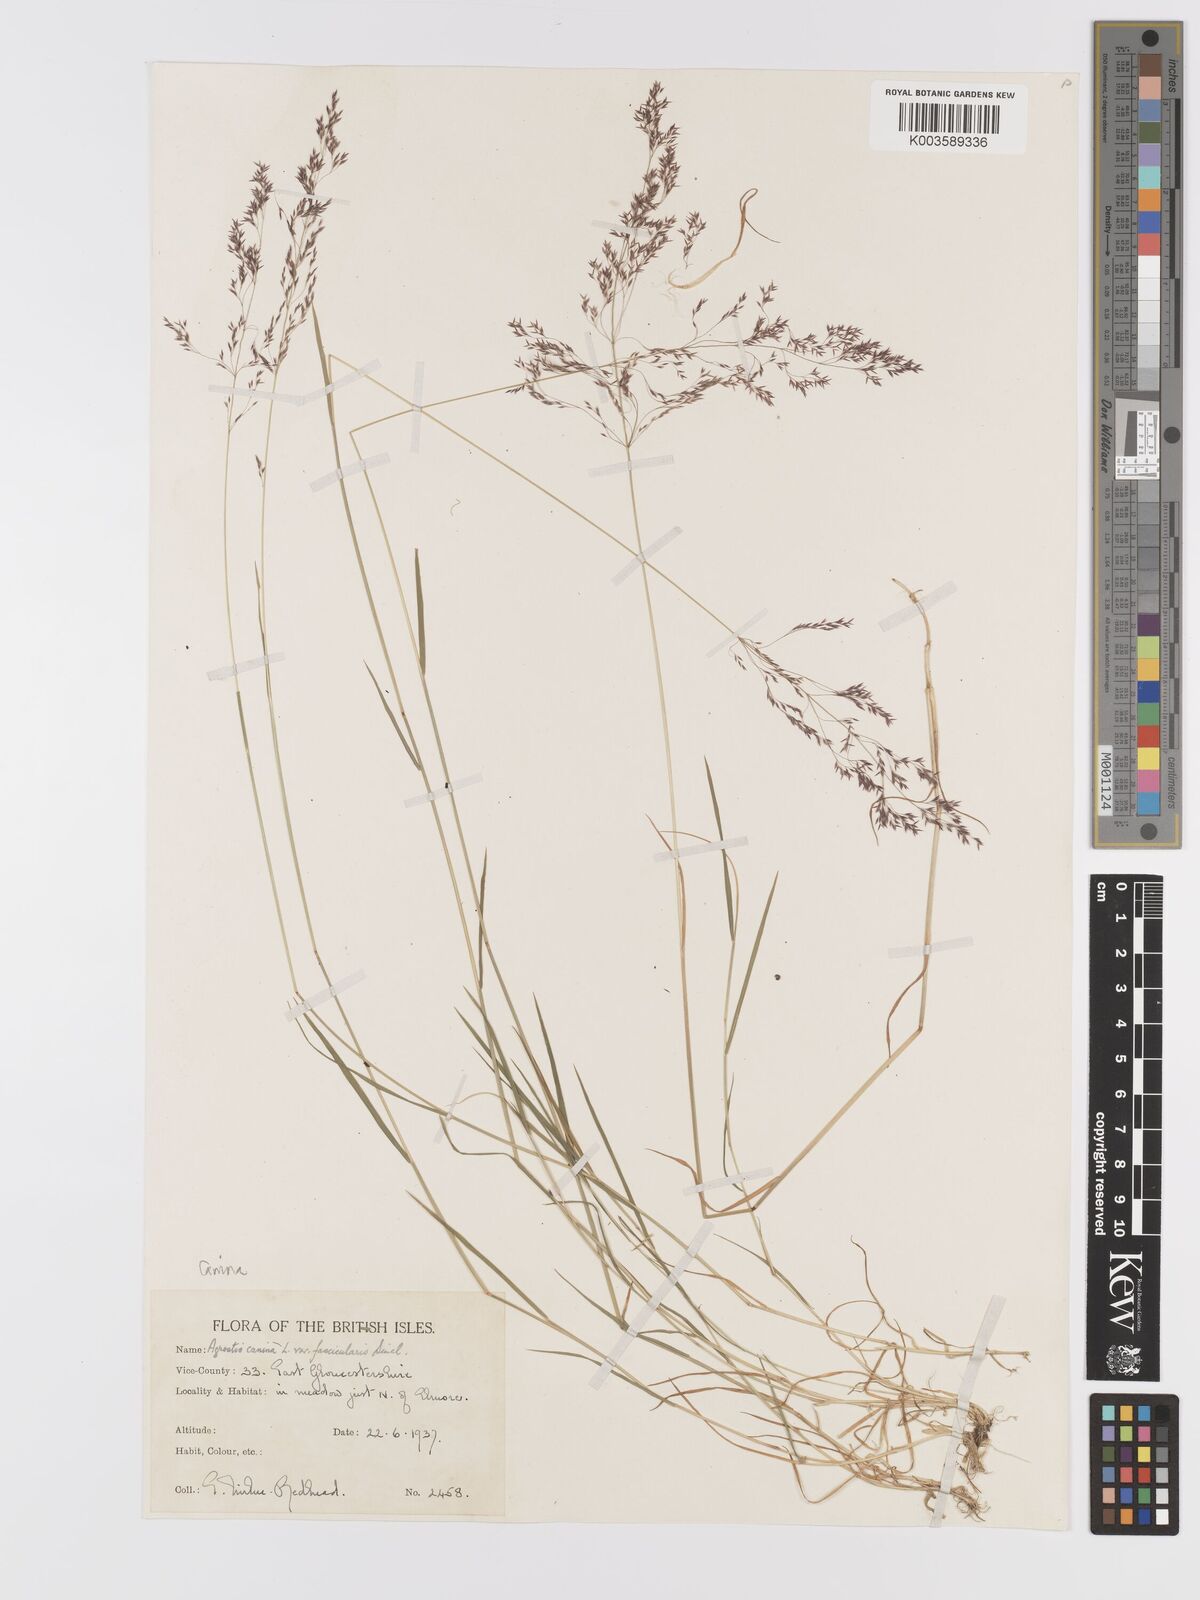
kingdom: Plantae
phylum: Tracheophyta
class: Liliopsida
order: Poales
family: Poaceae
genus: Agrostis
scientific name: Agrostis canina
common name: Velvet bent
